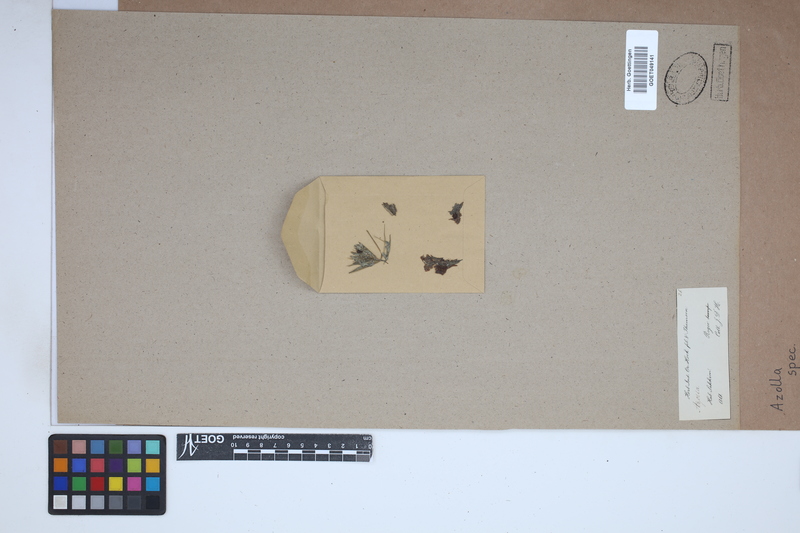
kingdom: Plantae
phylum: Tracheophyta
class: Polypodiopsida
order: Salviniales
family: Salviniaceae
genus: Azolla
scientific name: Azolla
